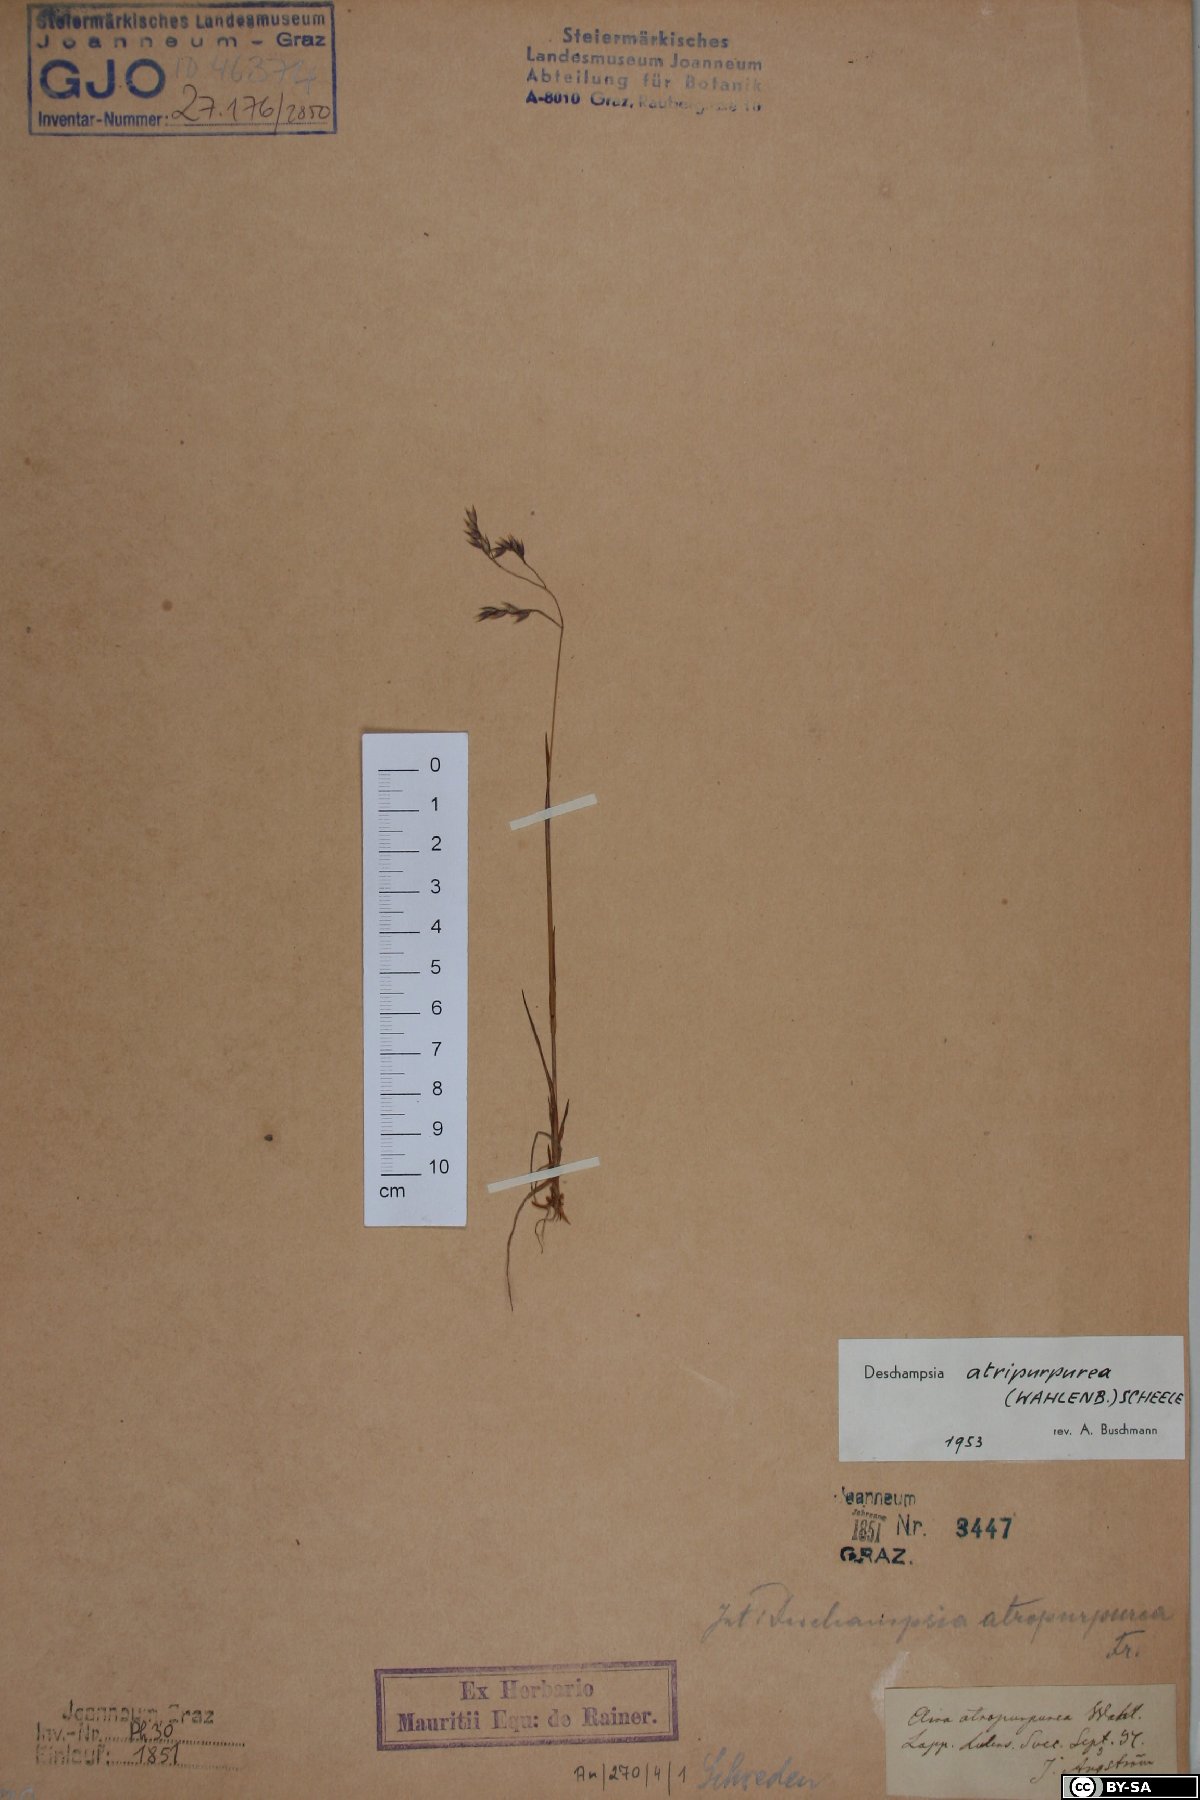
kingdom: Plantae
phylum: Tracheophyta
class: Liliopsida
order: Poales
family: Poaceae
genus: Vahlodea
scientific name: Vahlodea atropurpurea
